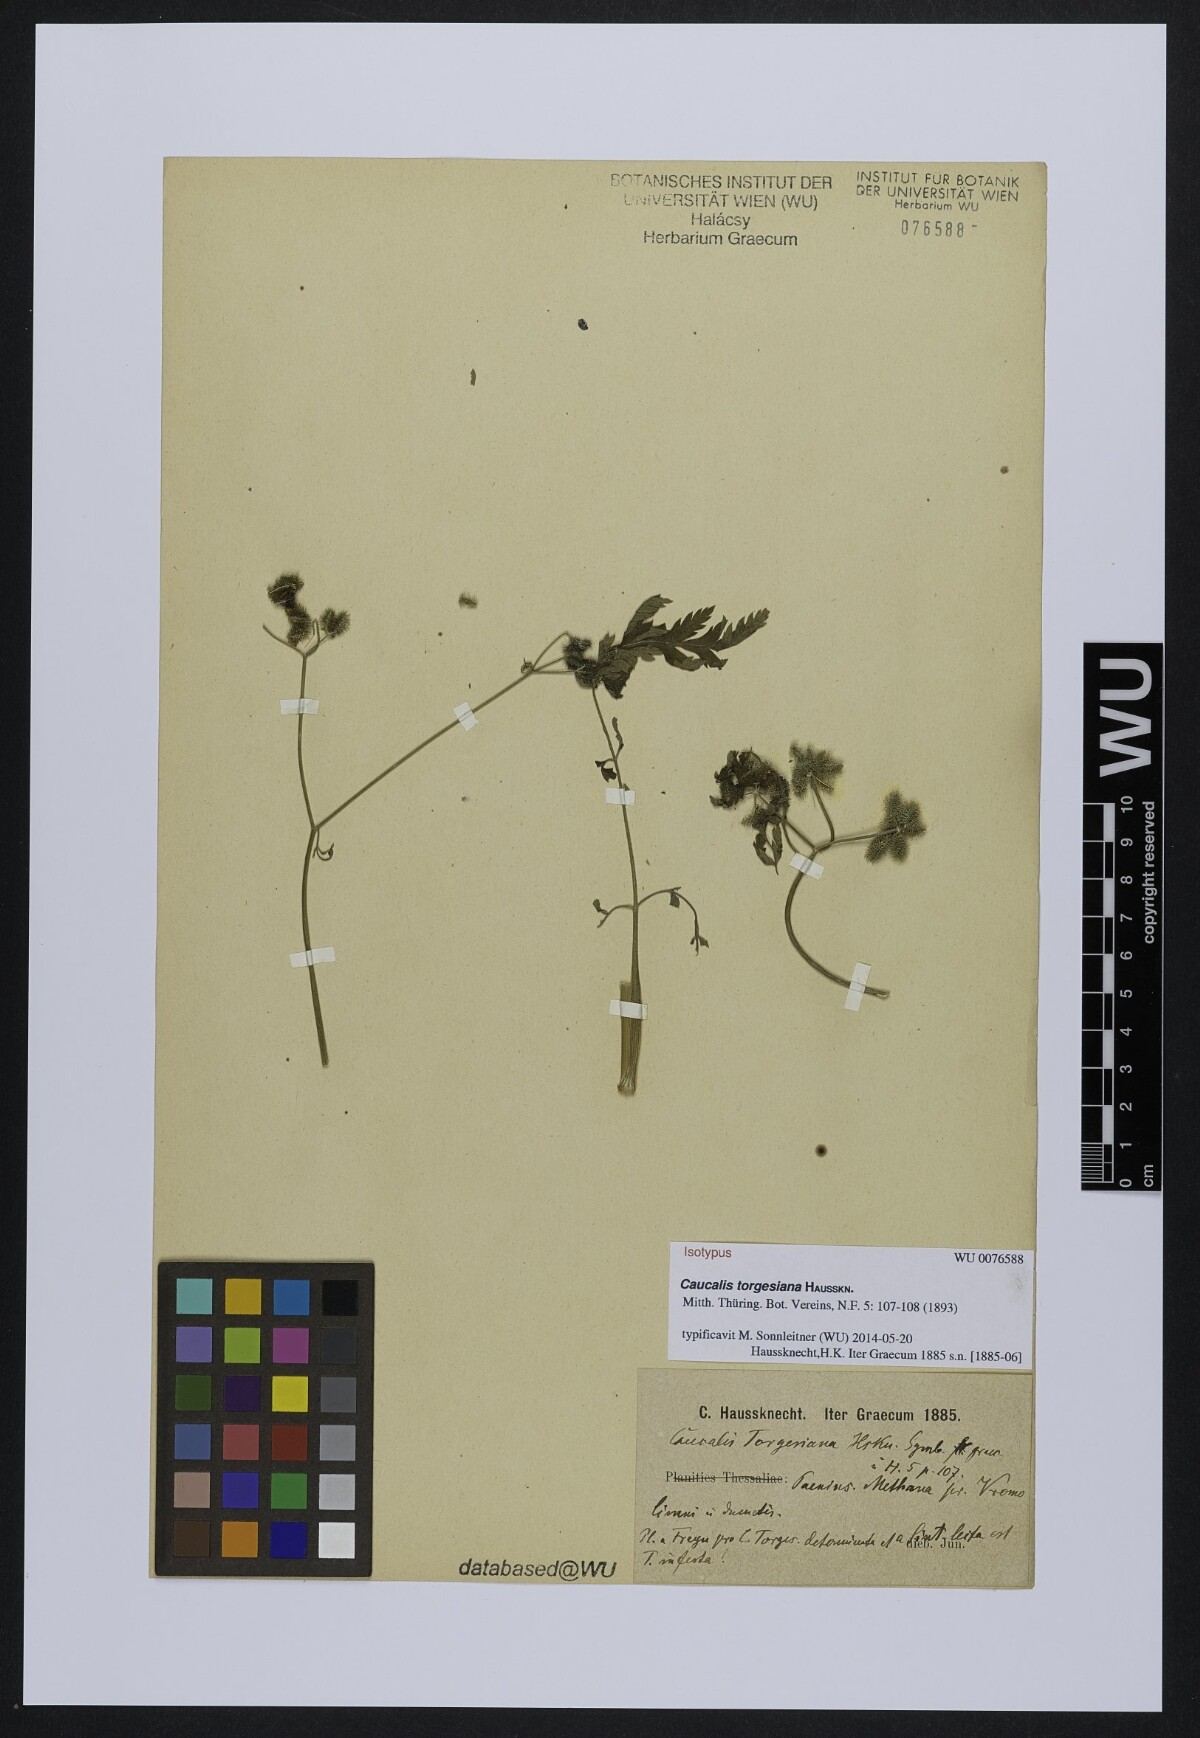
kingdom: Plantae
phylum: Tracheophyta
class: Magnoliopsida
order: Apiales
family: Apiaceae
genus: Torilis
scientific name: Torilis africana
